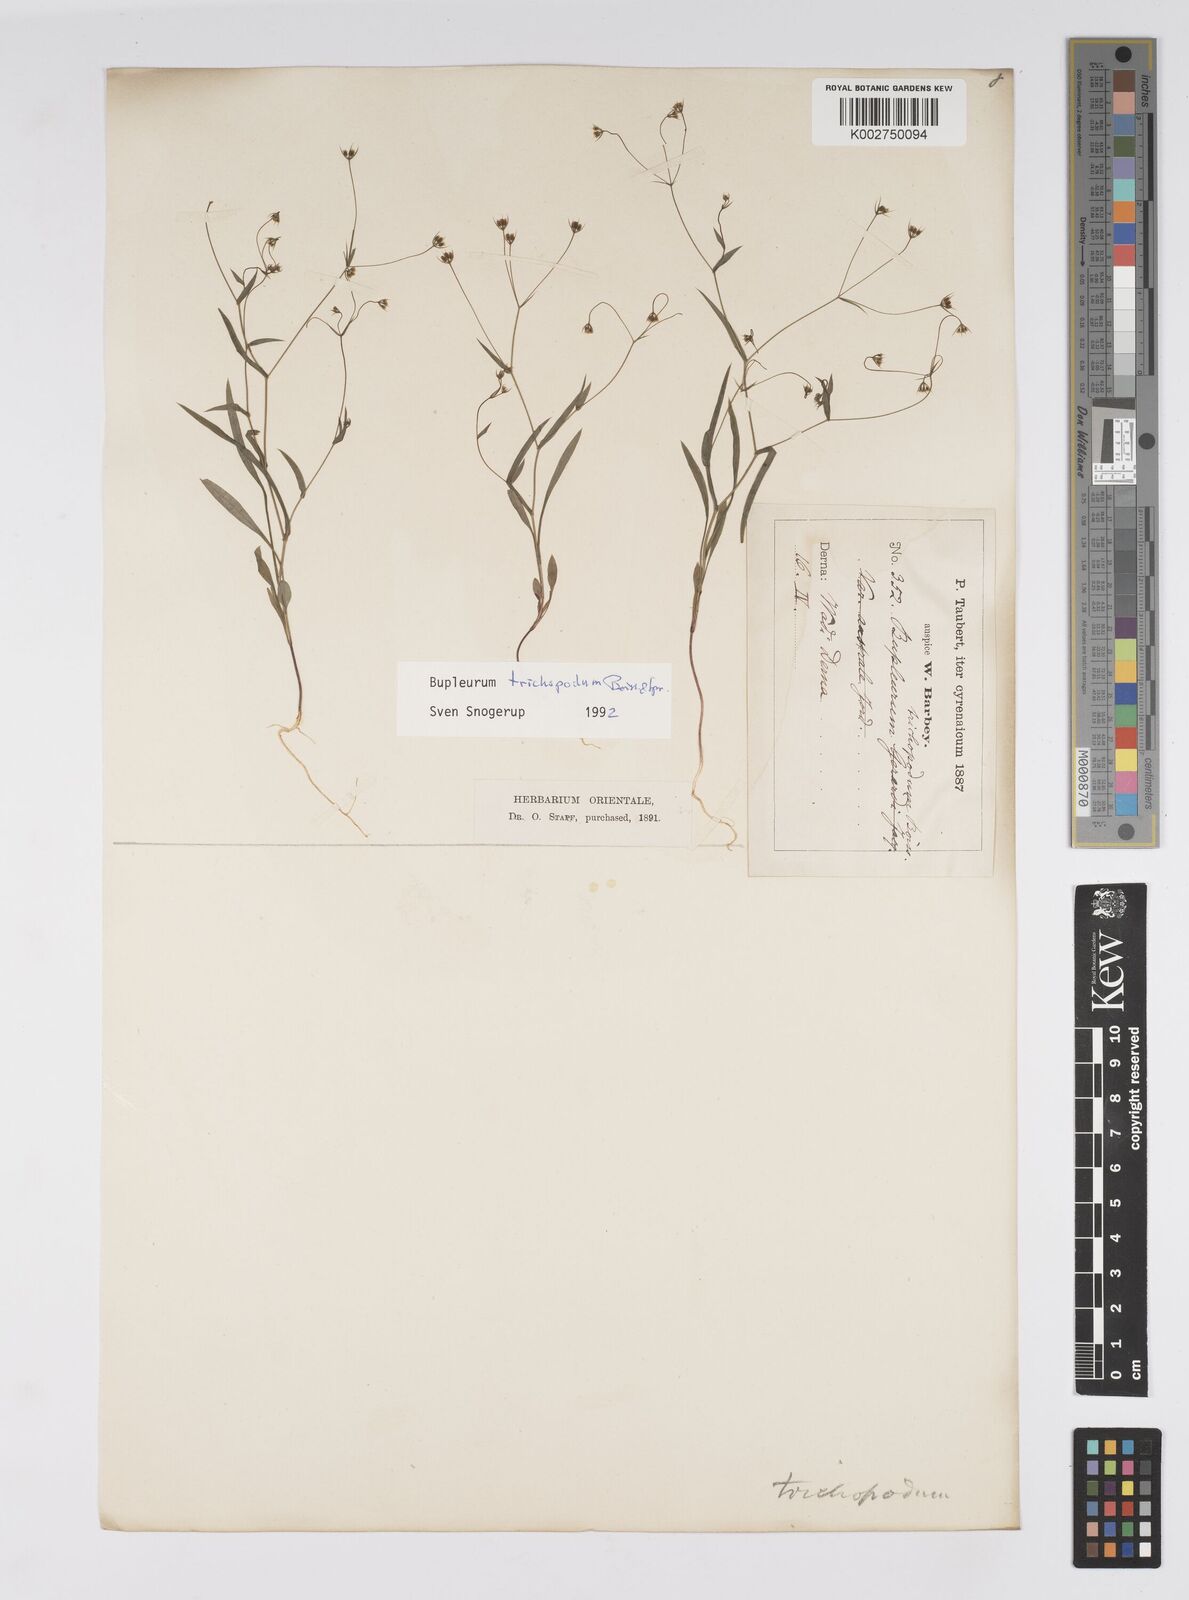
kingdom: Plantae
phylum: Tracheophyta
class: Magnoliopsida
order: Apiales
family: Apiaceae
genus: Bupleurum
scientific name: Bupleurum trichopodum
